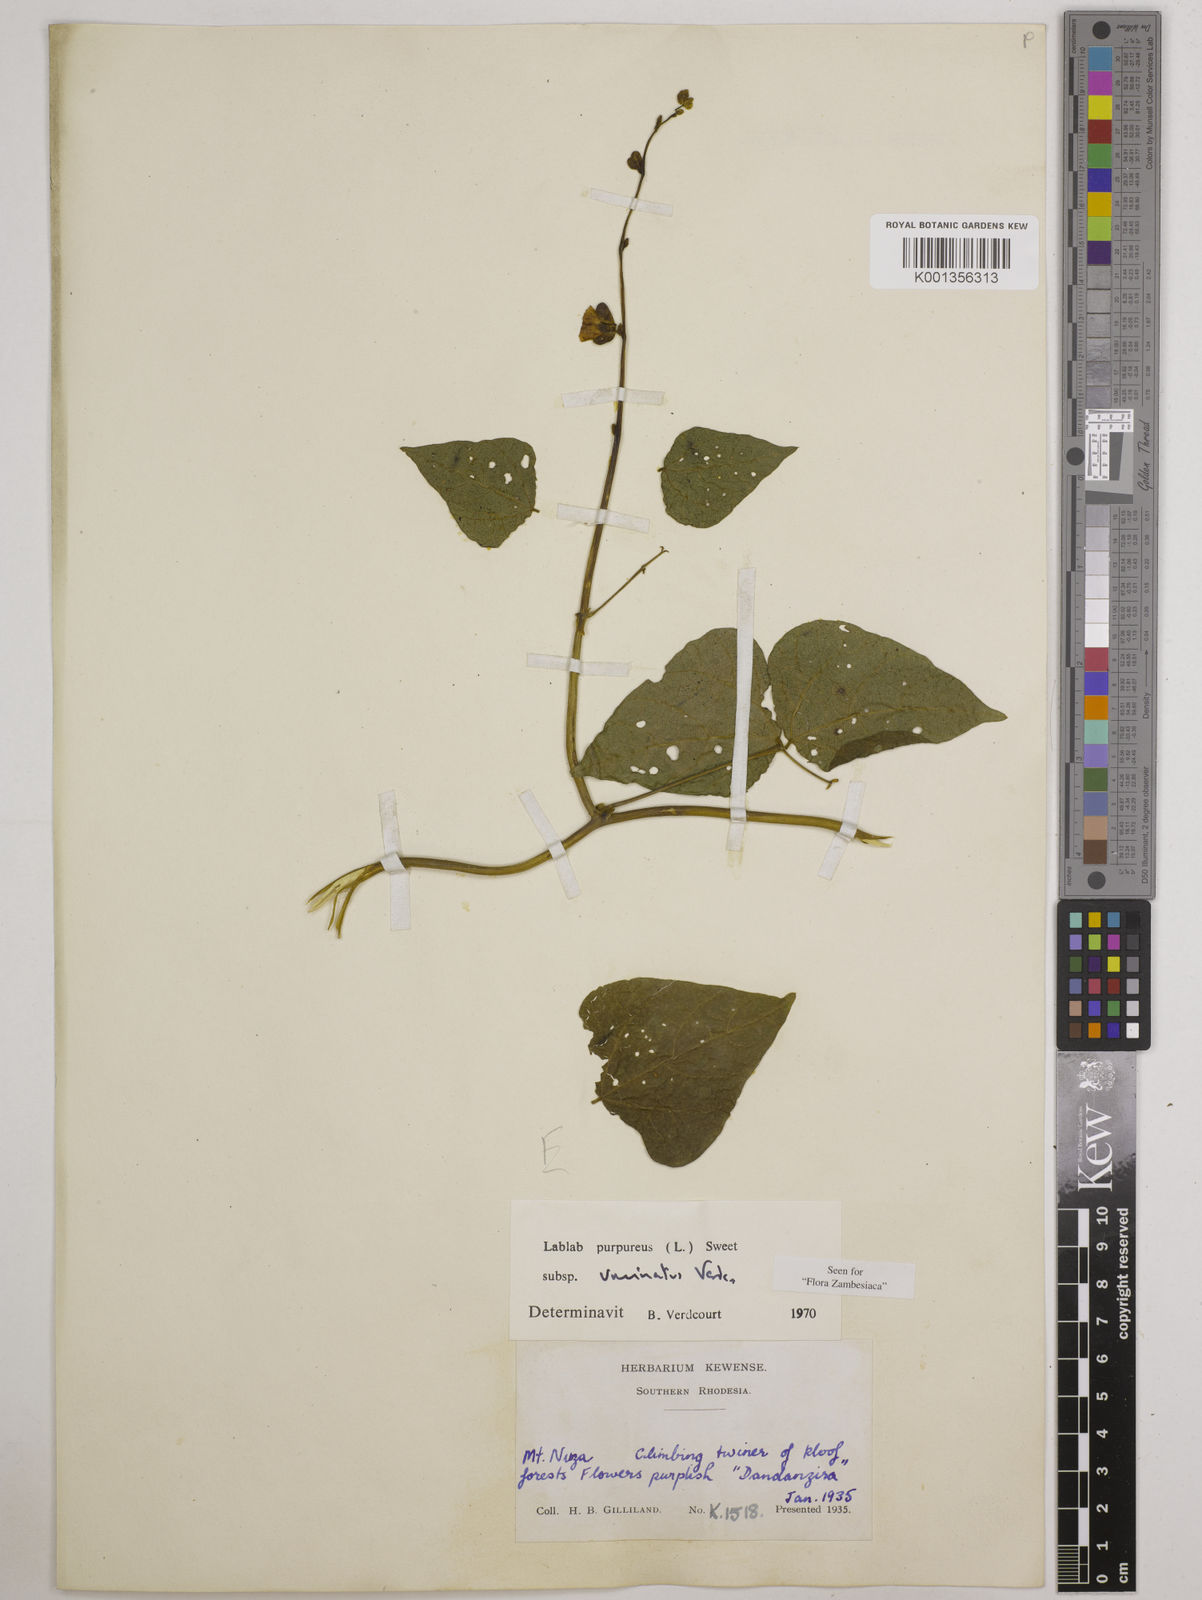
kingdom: Plantae
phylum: Tracheophyta
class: Magnoliopsida
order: Fabales
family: Fabaceae
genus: Lablab
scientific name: Lablab purpureus
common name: Lablab-bean
